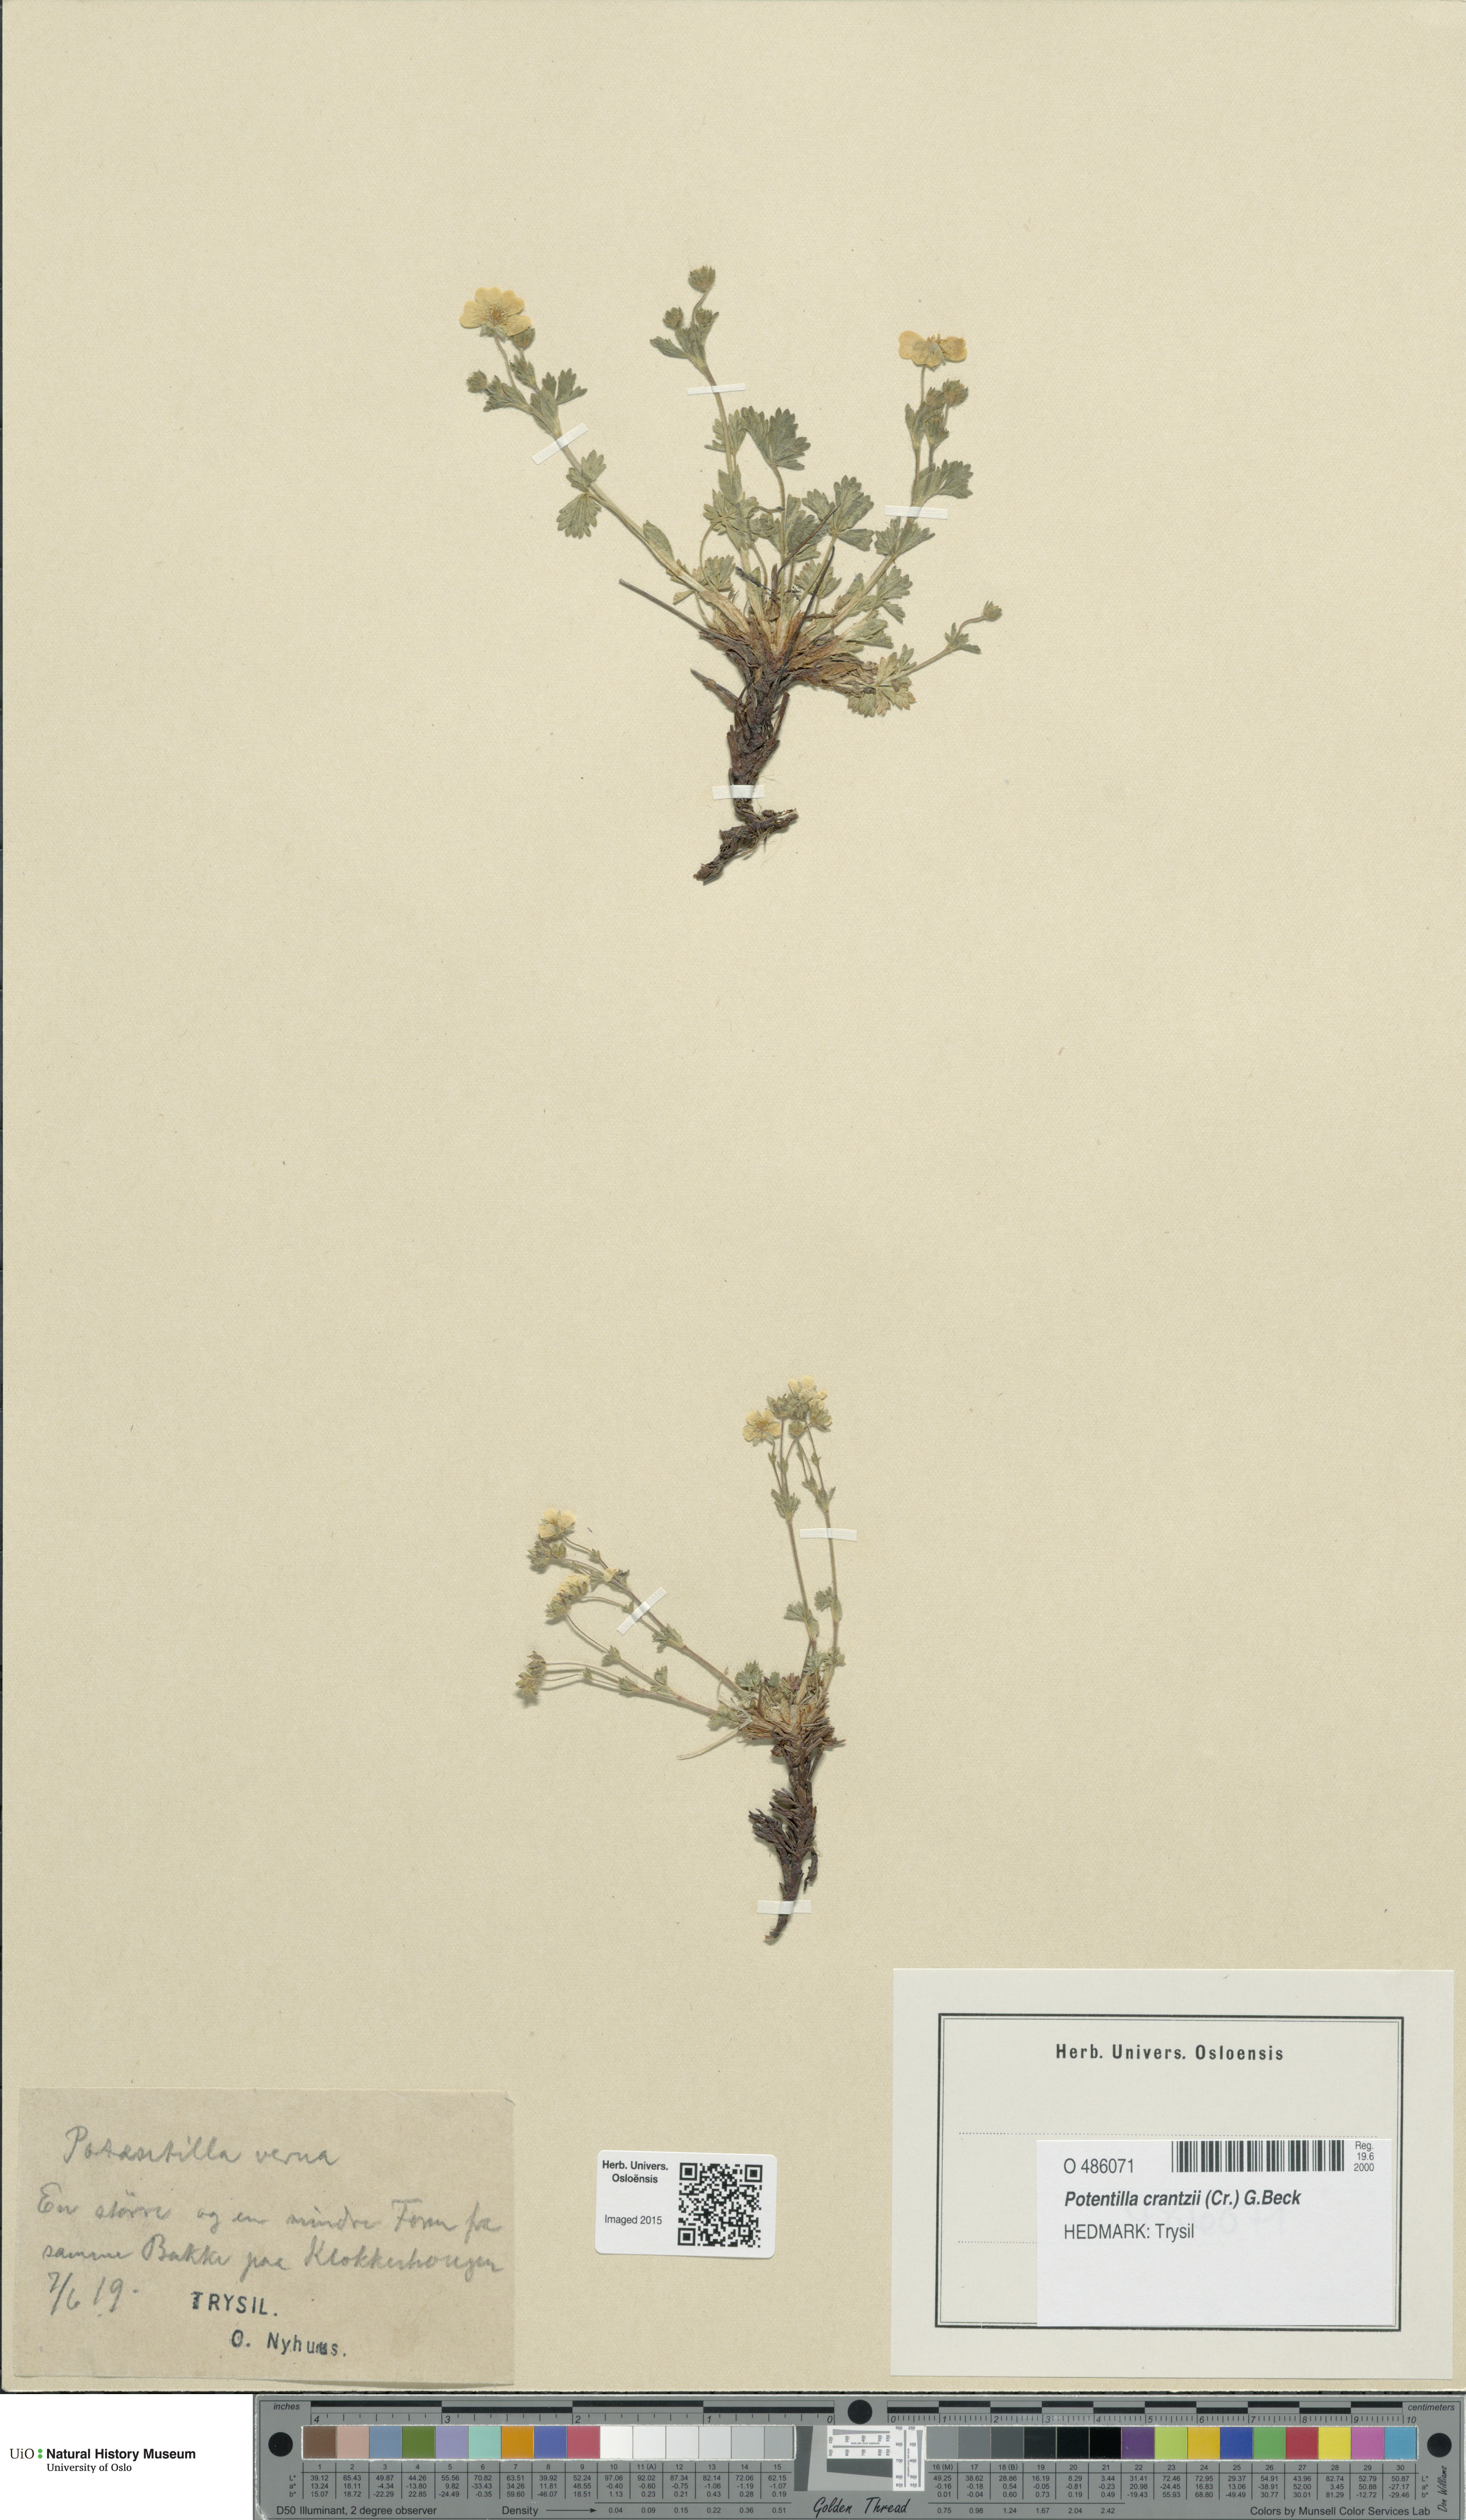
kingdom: Plantae
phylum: Tracheophyta
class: Magnoliopsida
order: Rosales
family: Rosaceae
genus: Potentilla
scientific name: Potentilla verna
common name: Spring cinquefoil
